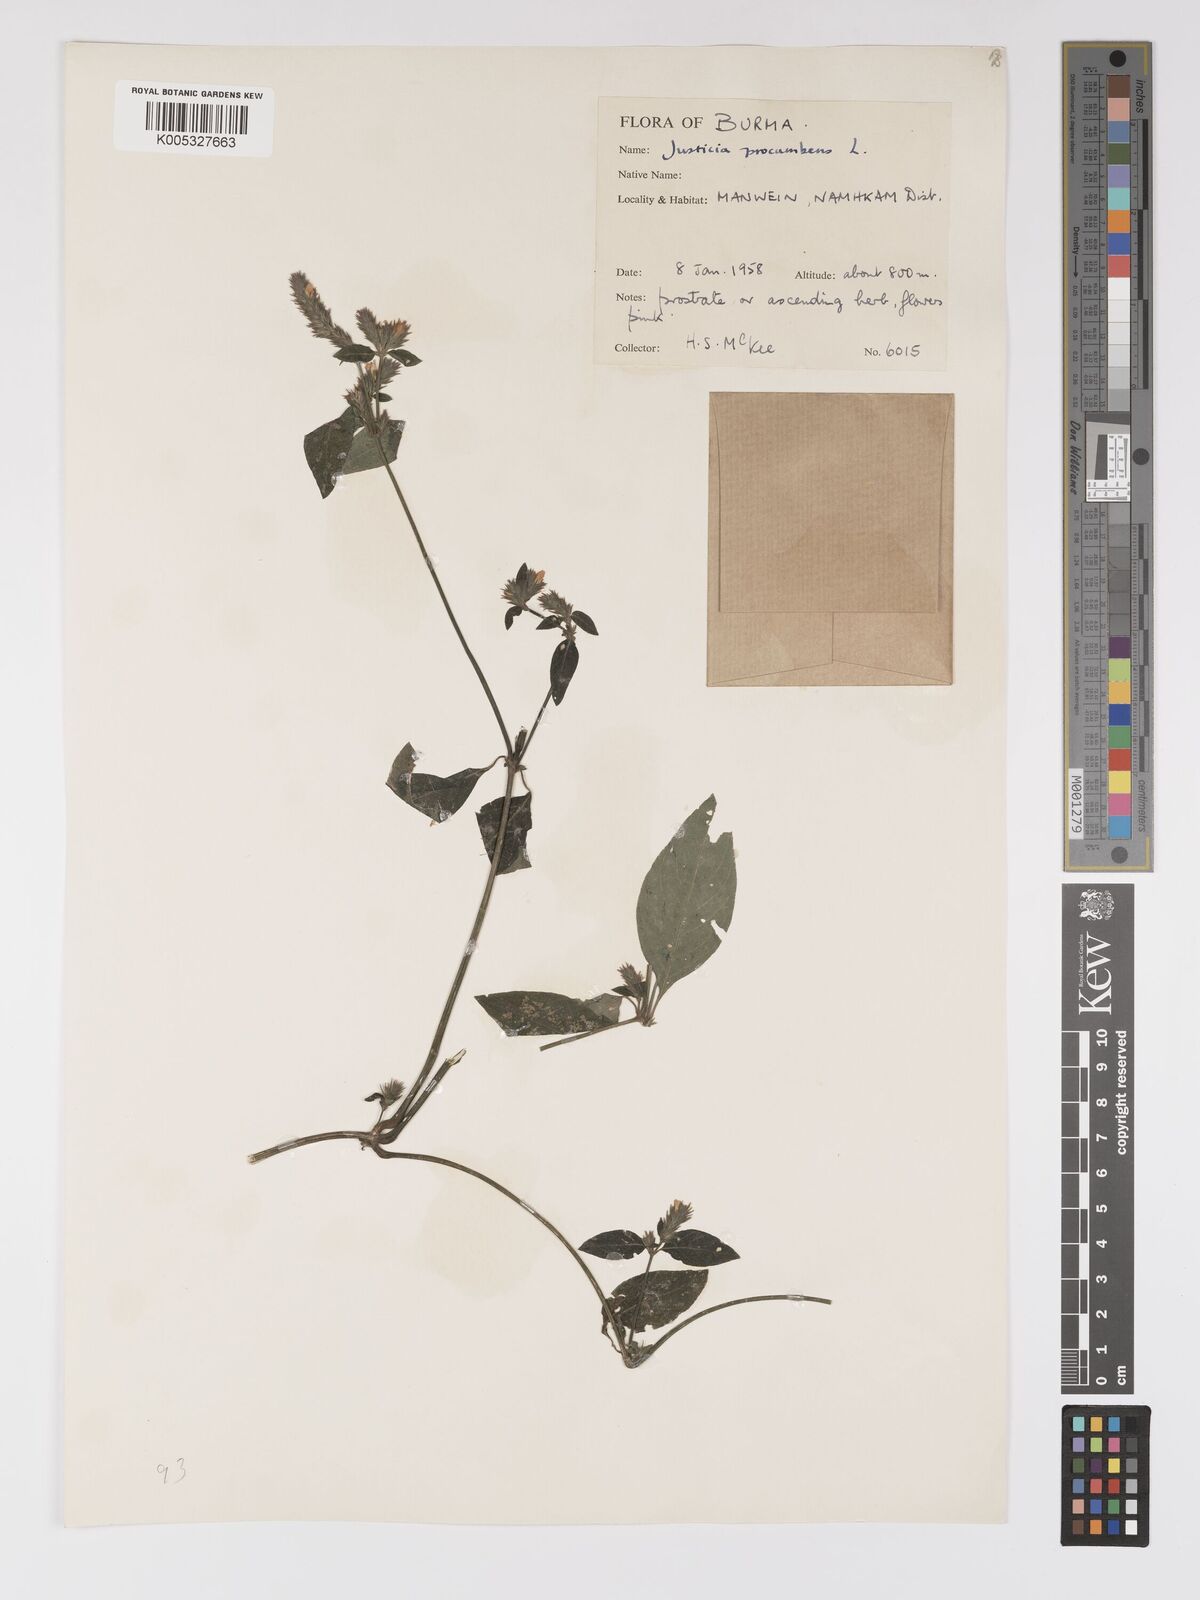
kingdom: Plantae
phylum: Tracheophyta
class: Magnoliopsida
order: Lamiales
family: Acanthaceae
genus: Rostellularia
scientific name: Rostellularia latispica
